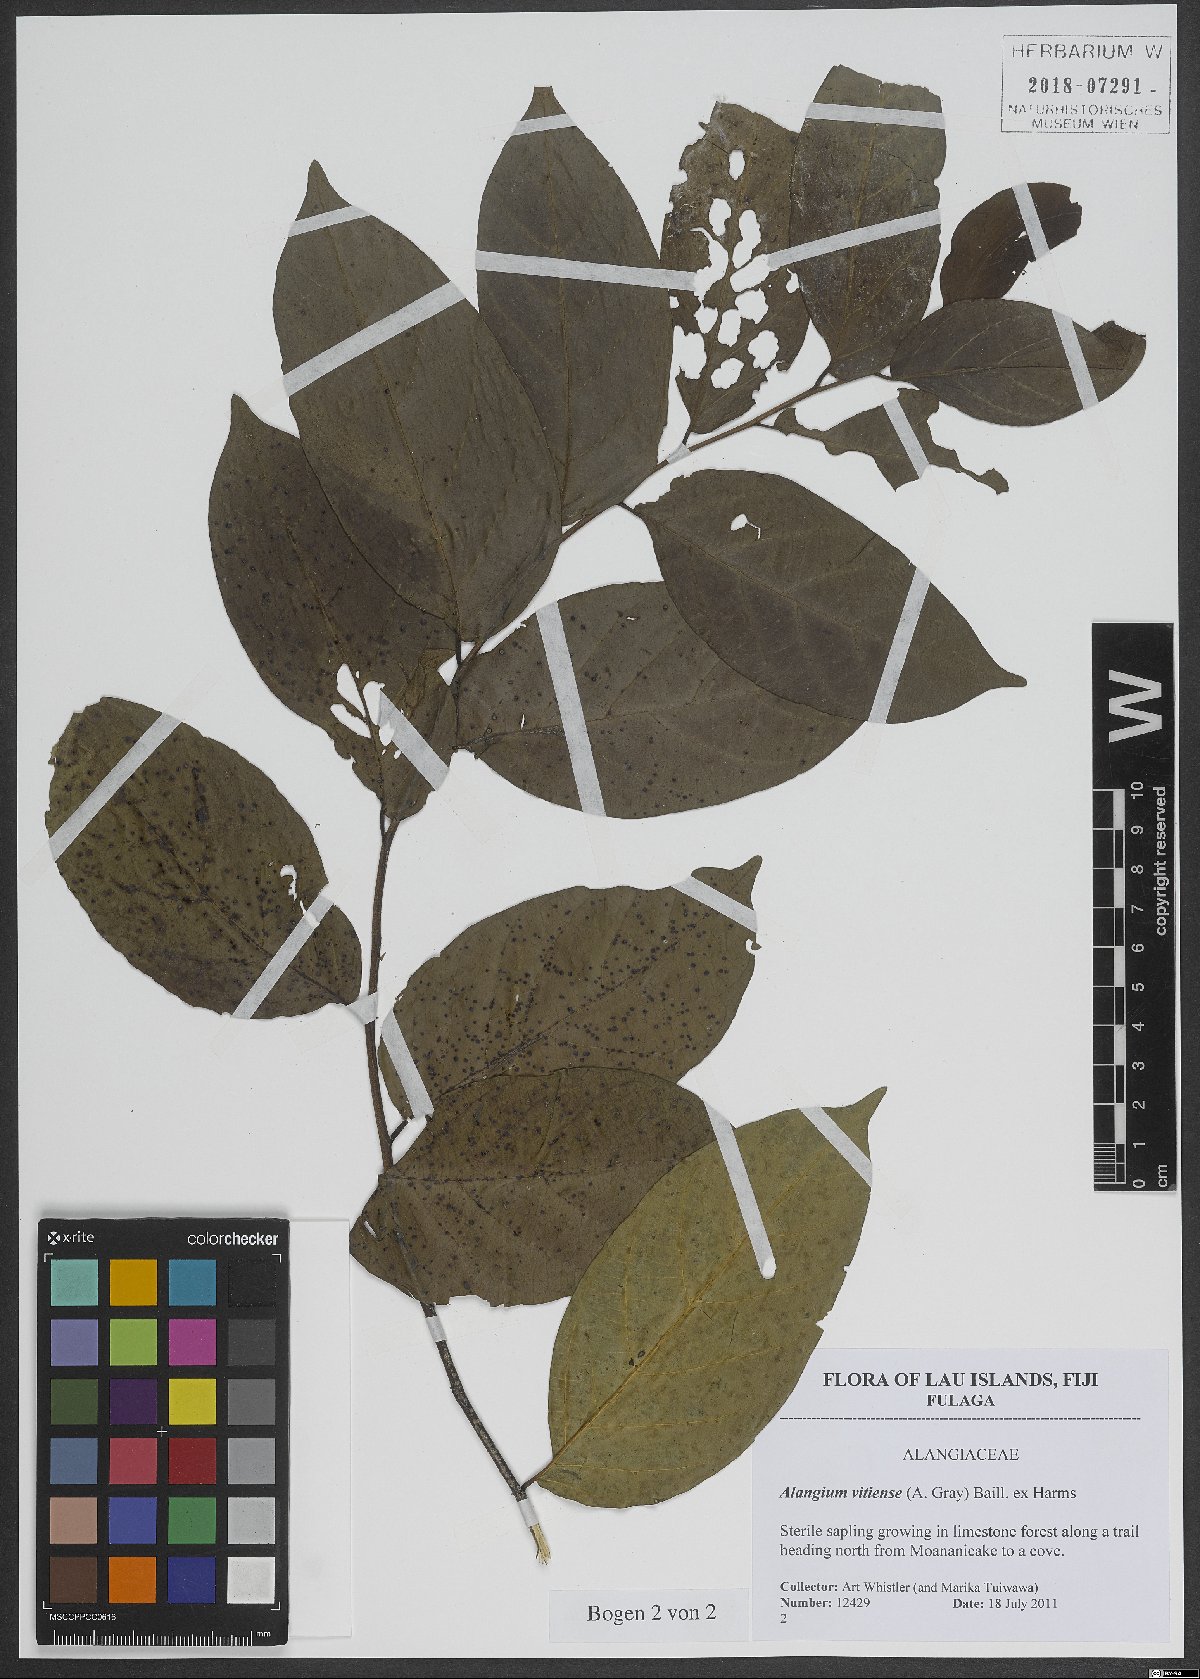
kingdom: Plantae
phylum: Tracheophyta
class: Magnoliopsida
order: Cornales
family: Cornaceae
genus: Alangium
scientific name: Alangium vitiense
